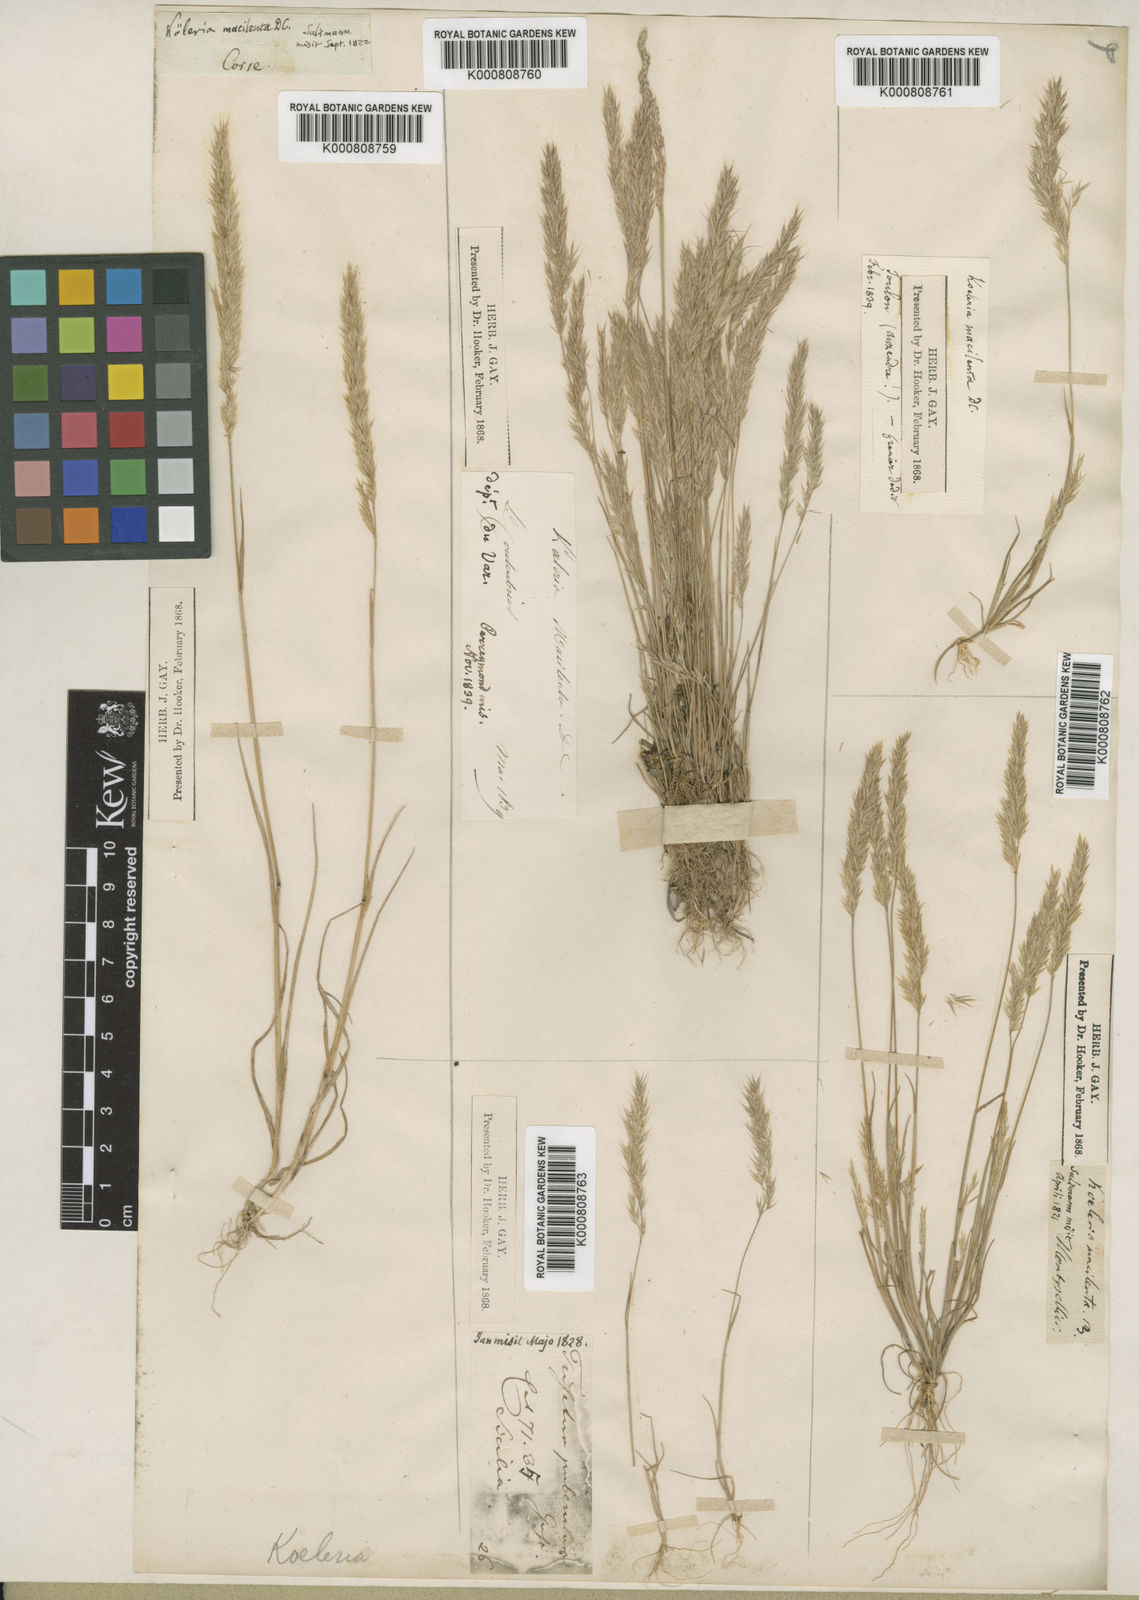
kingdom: Plantae
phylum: Tracheophyta
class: Liliopsida
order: Poales
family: Poaceae
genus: Avellinia
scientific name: Avellinia festucoides
